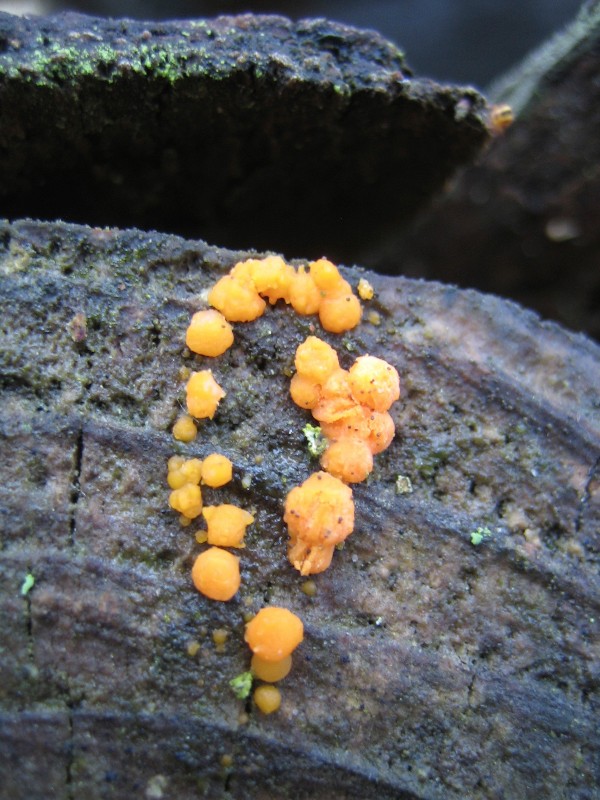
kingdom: Fungi
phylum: Basidiomycota
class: Dacrymycetes
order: Dacrymycetales
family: Dacrymycetaceae
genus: Dacrymyces
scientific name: Dacrymyces stillatus
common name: almindelig tåresvamp
